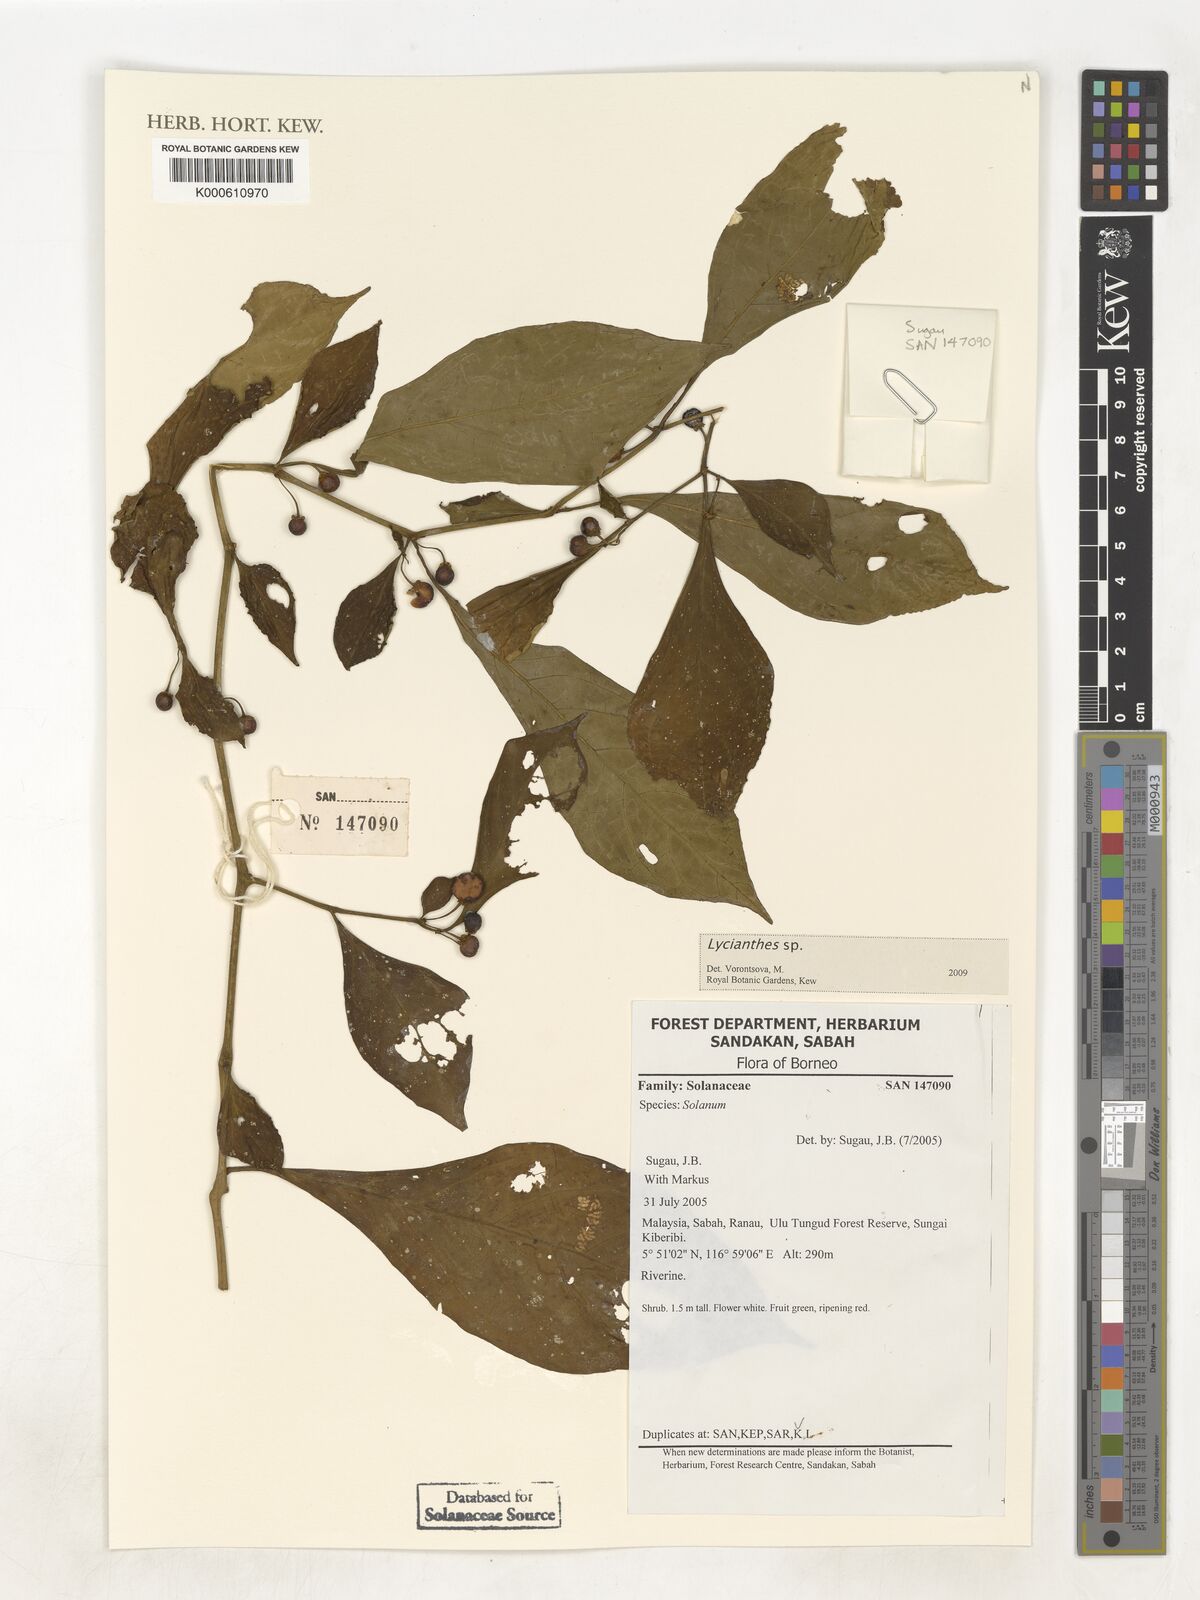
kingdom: Plantae
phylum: Tracheophyta
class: Magnoliopsida
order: Solanales
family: Solanaceae
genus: Lycianthes
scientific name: Lycianthes
